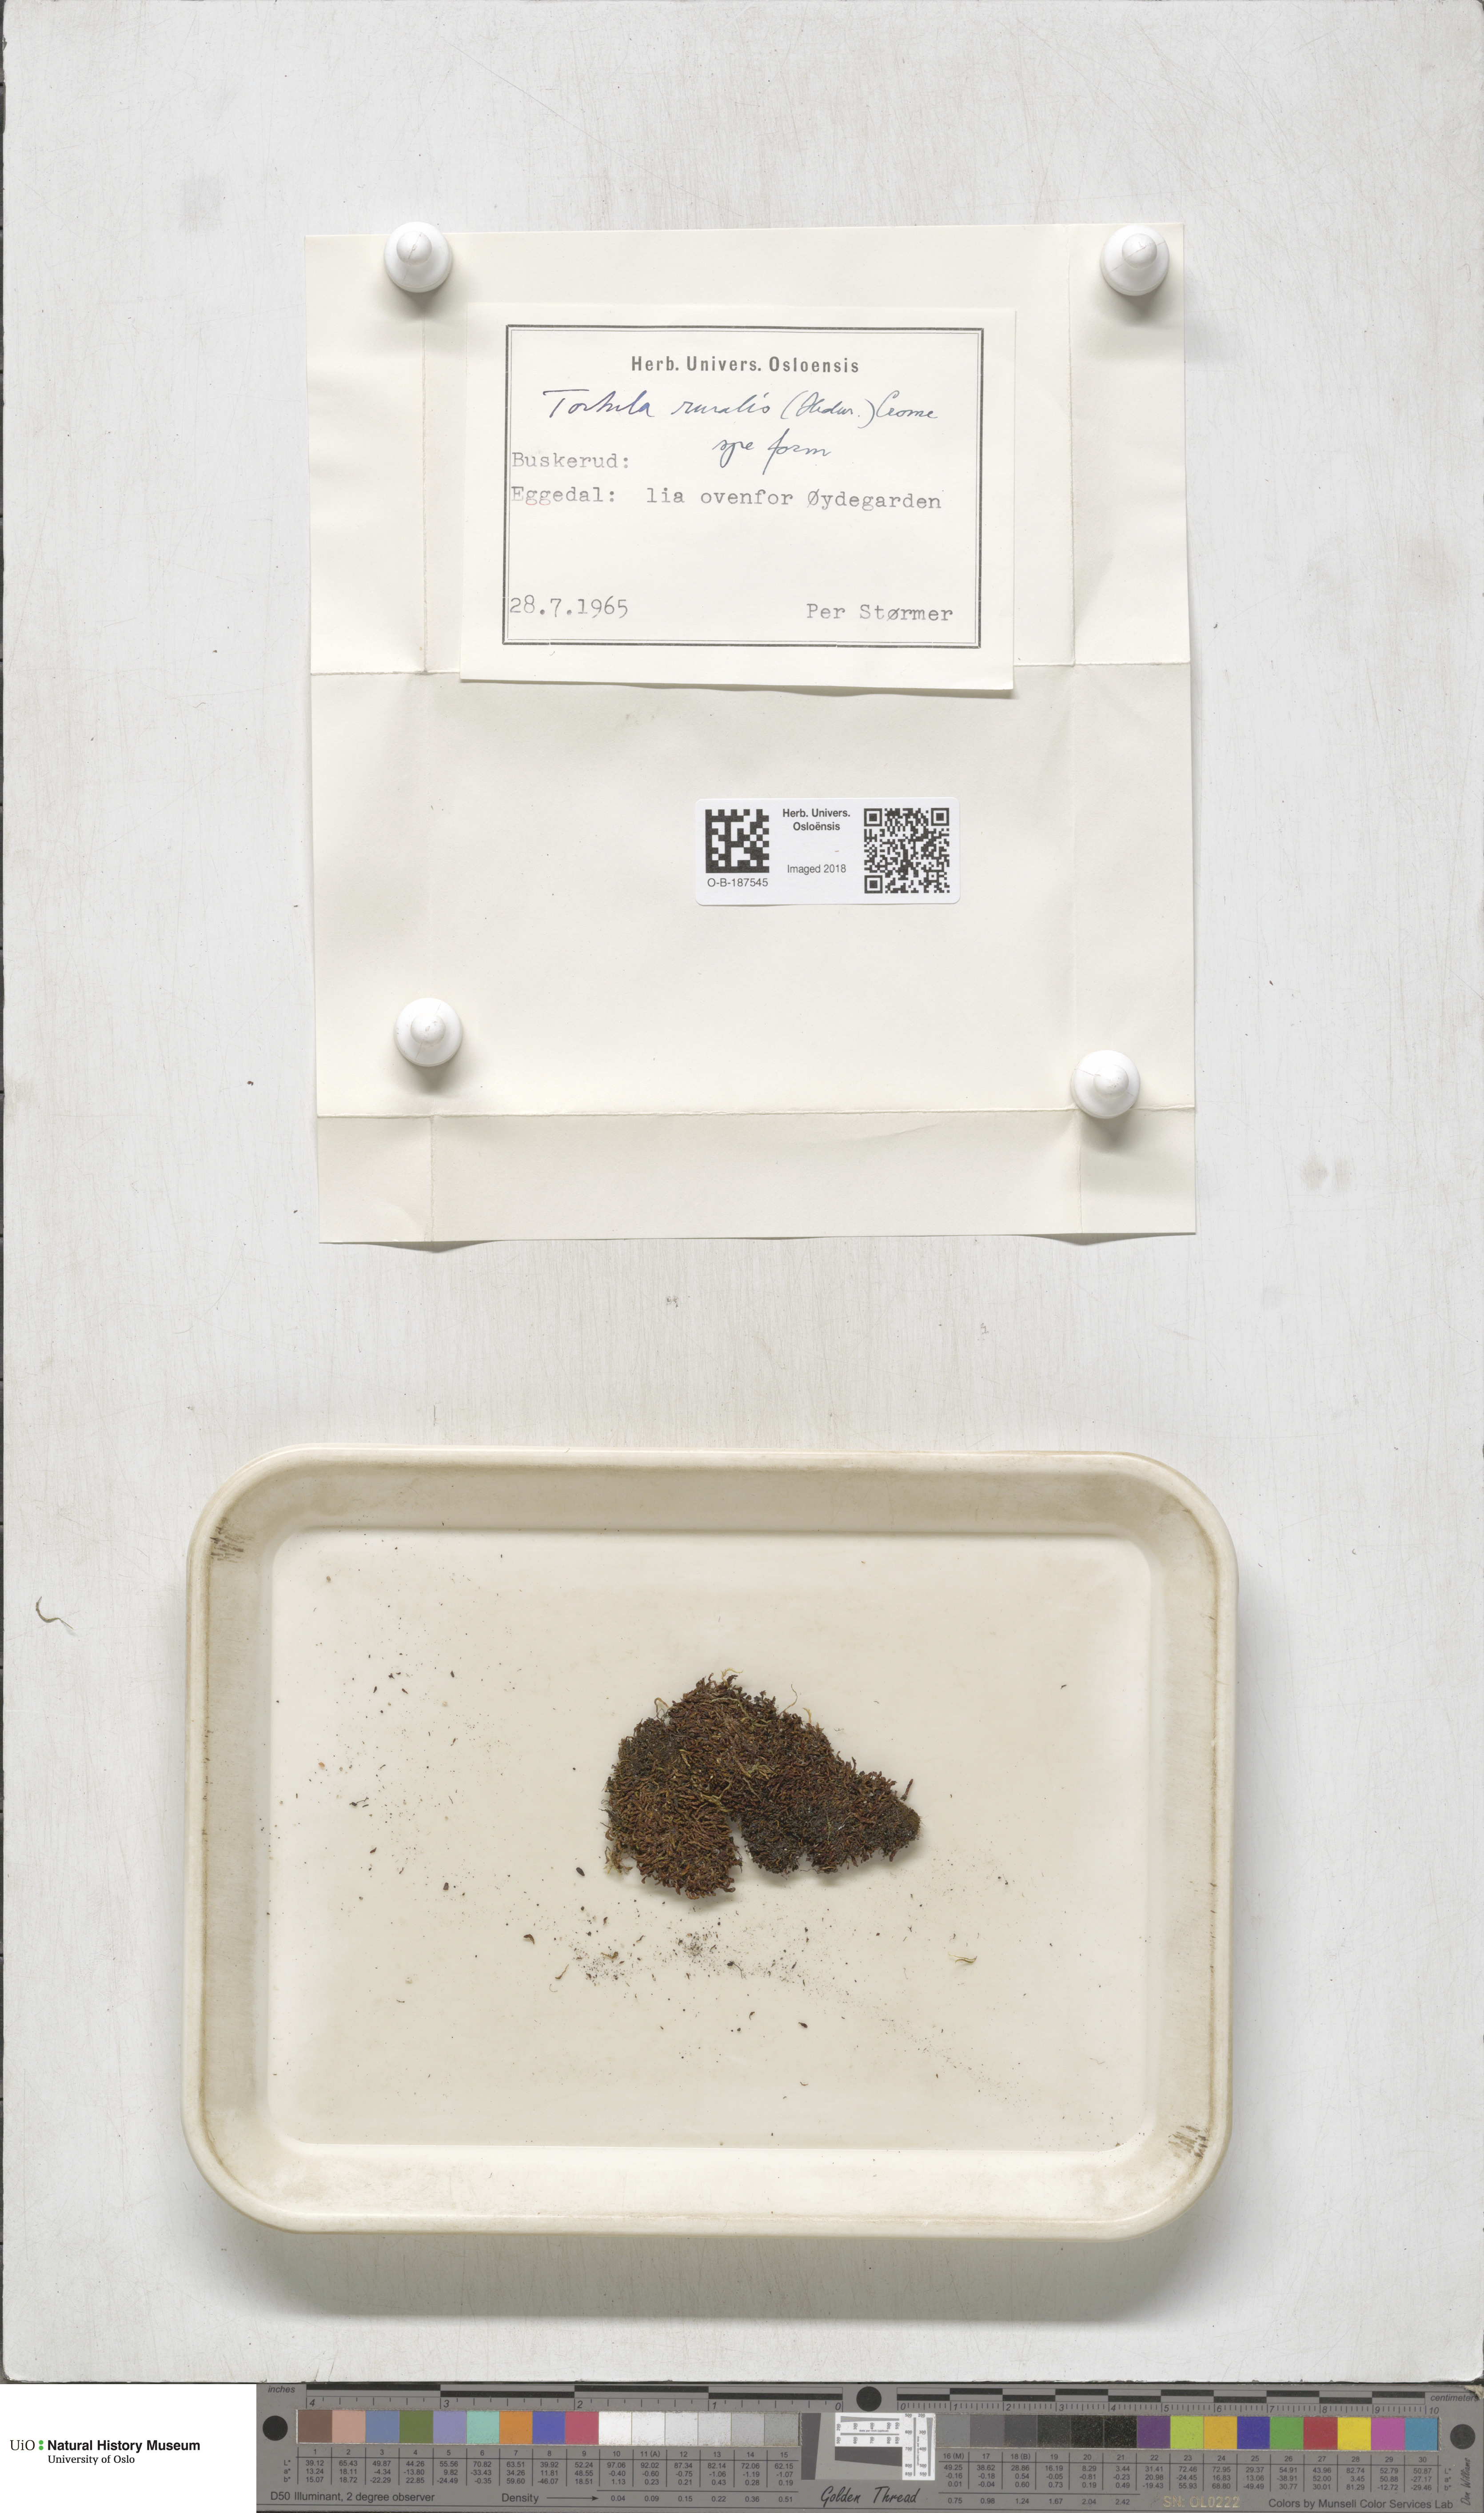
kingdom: Plantae
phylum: Bryophyta
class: Bryopsida
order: Pottiales
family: Pottiaceae
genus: Syntrichia
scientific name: Syntrichia ruralis
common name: Sidewalk screw moss
